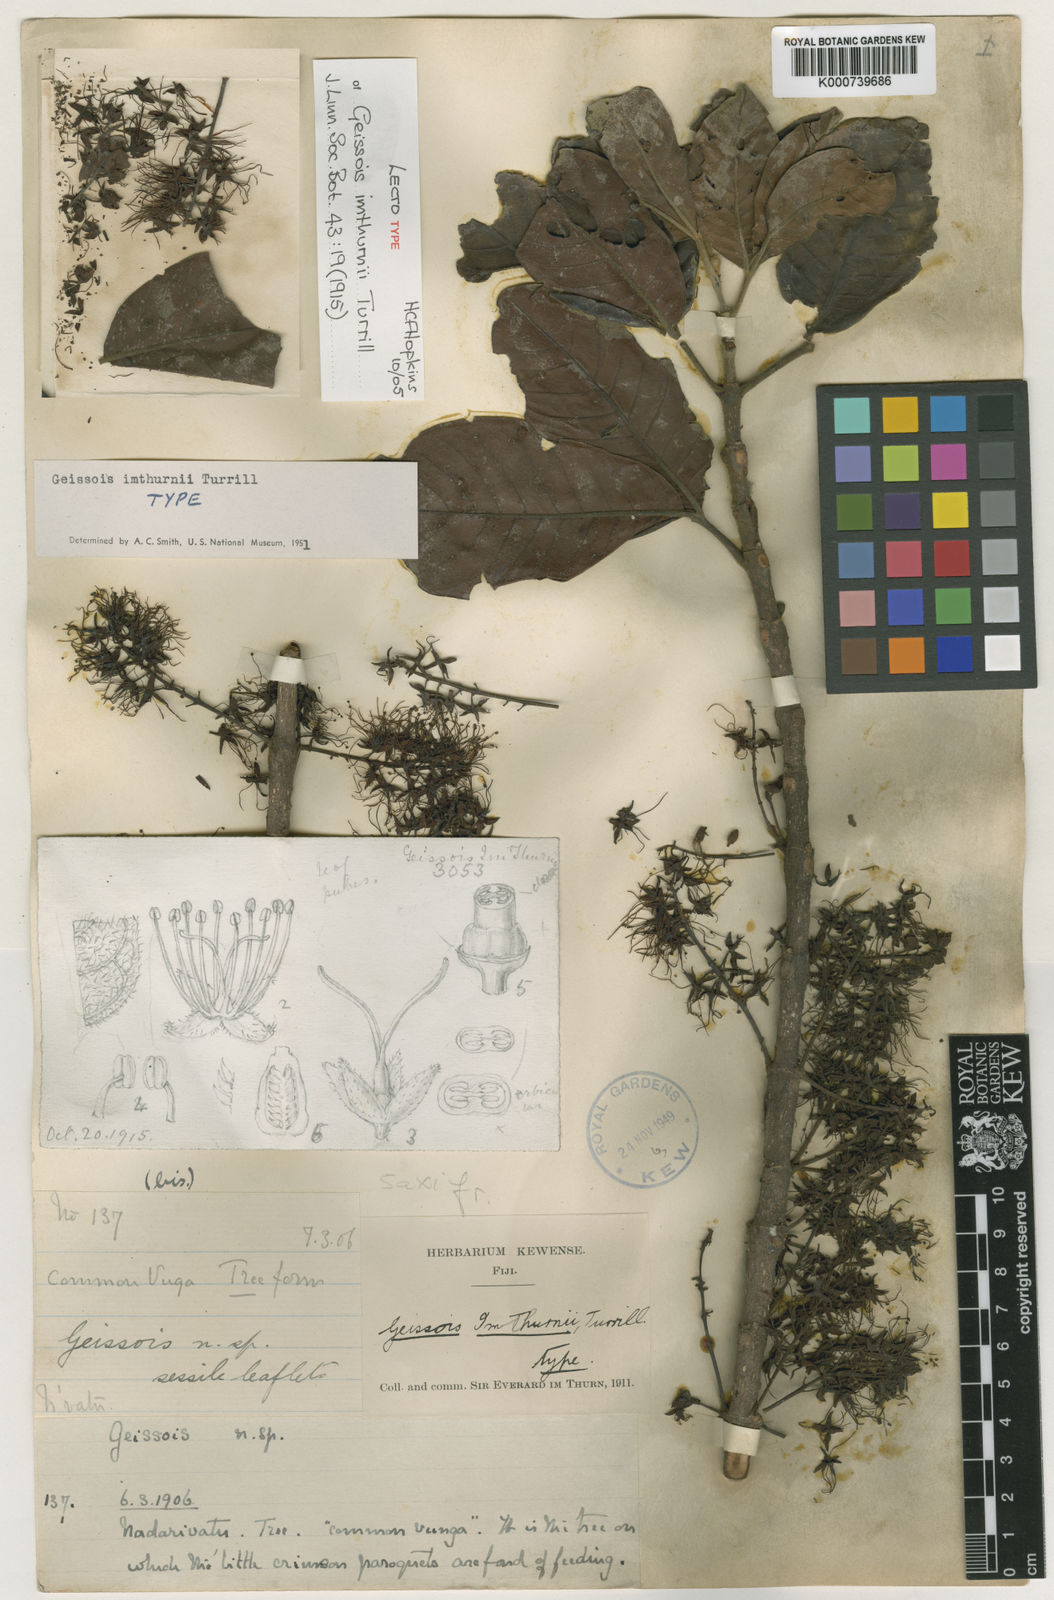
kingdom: Plantae
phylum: Tracheophyta
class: Magnoliopsida
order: Oxalidales
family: Cunoniaceae
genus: Geissois
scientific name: Geissois imthurnii
